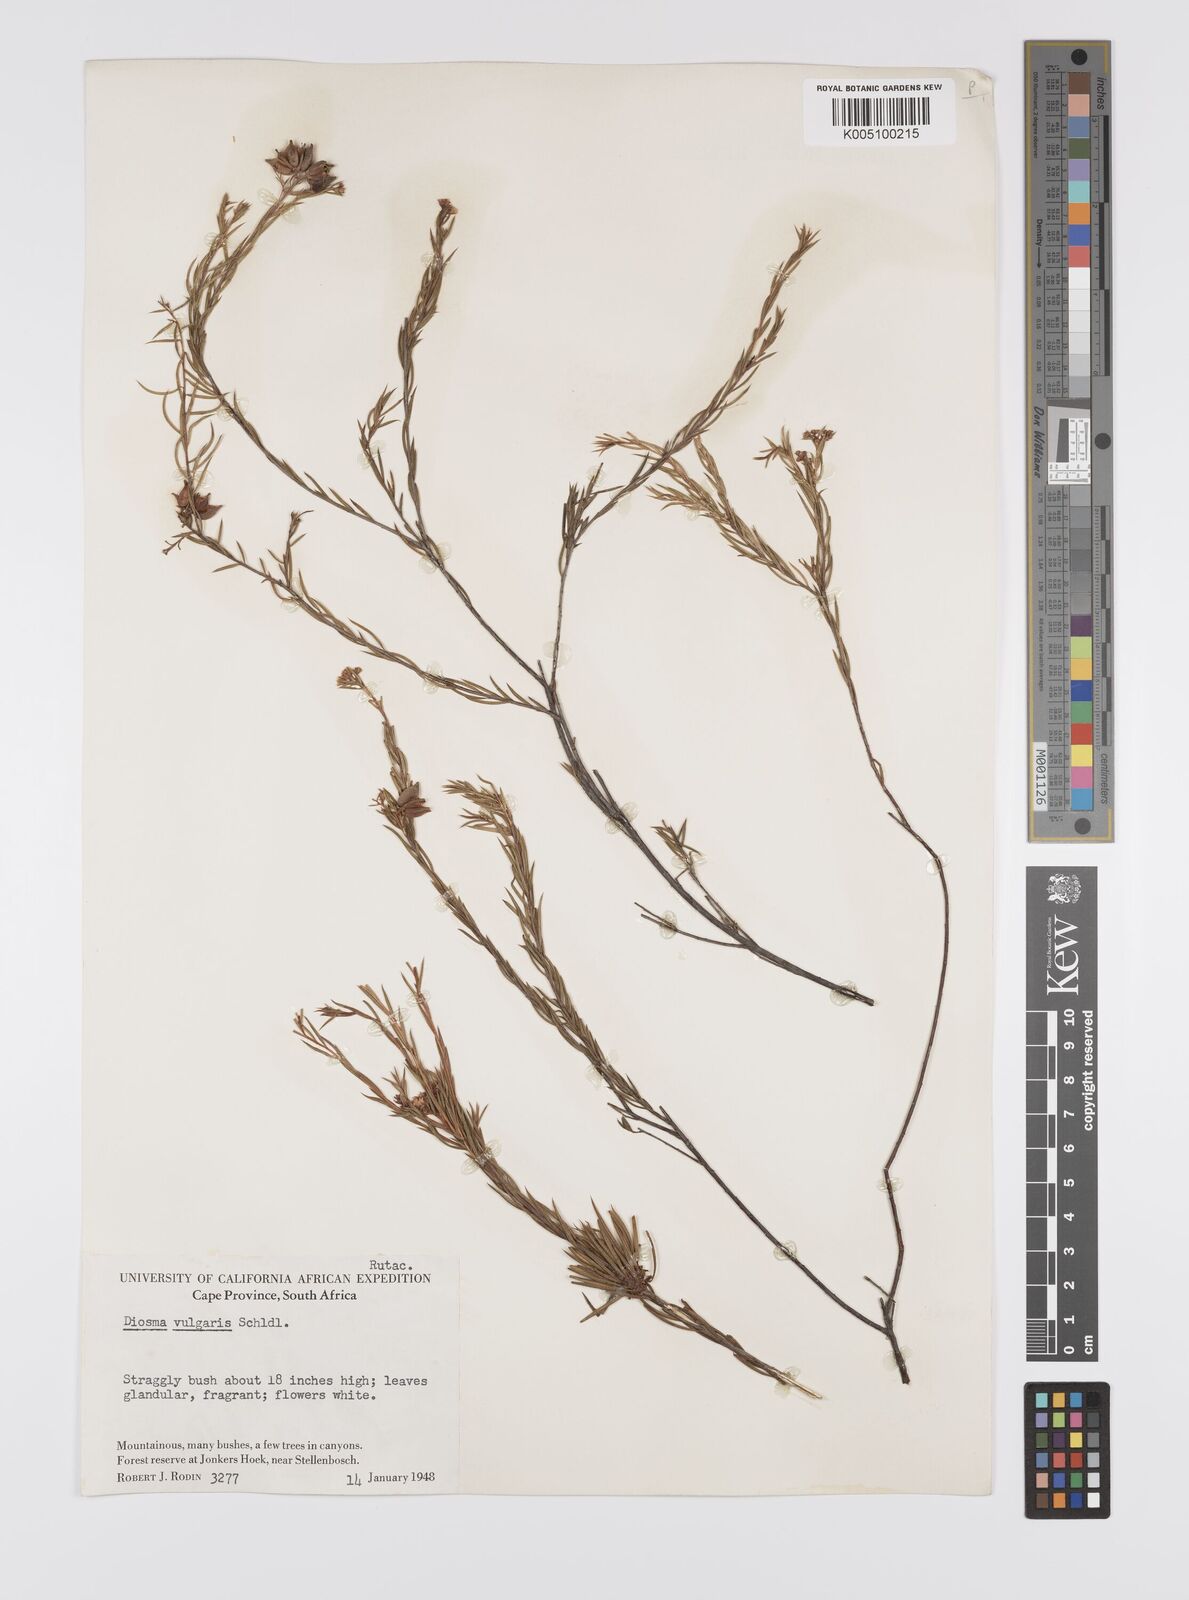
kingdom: Plantae
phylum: Tracheophyta
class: Magnoliopsida
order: Sapindales
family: Rutaceae
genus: Diosma
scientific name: Diosma hirsuta
